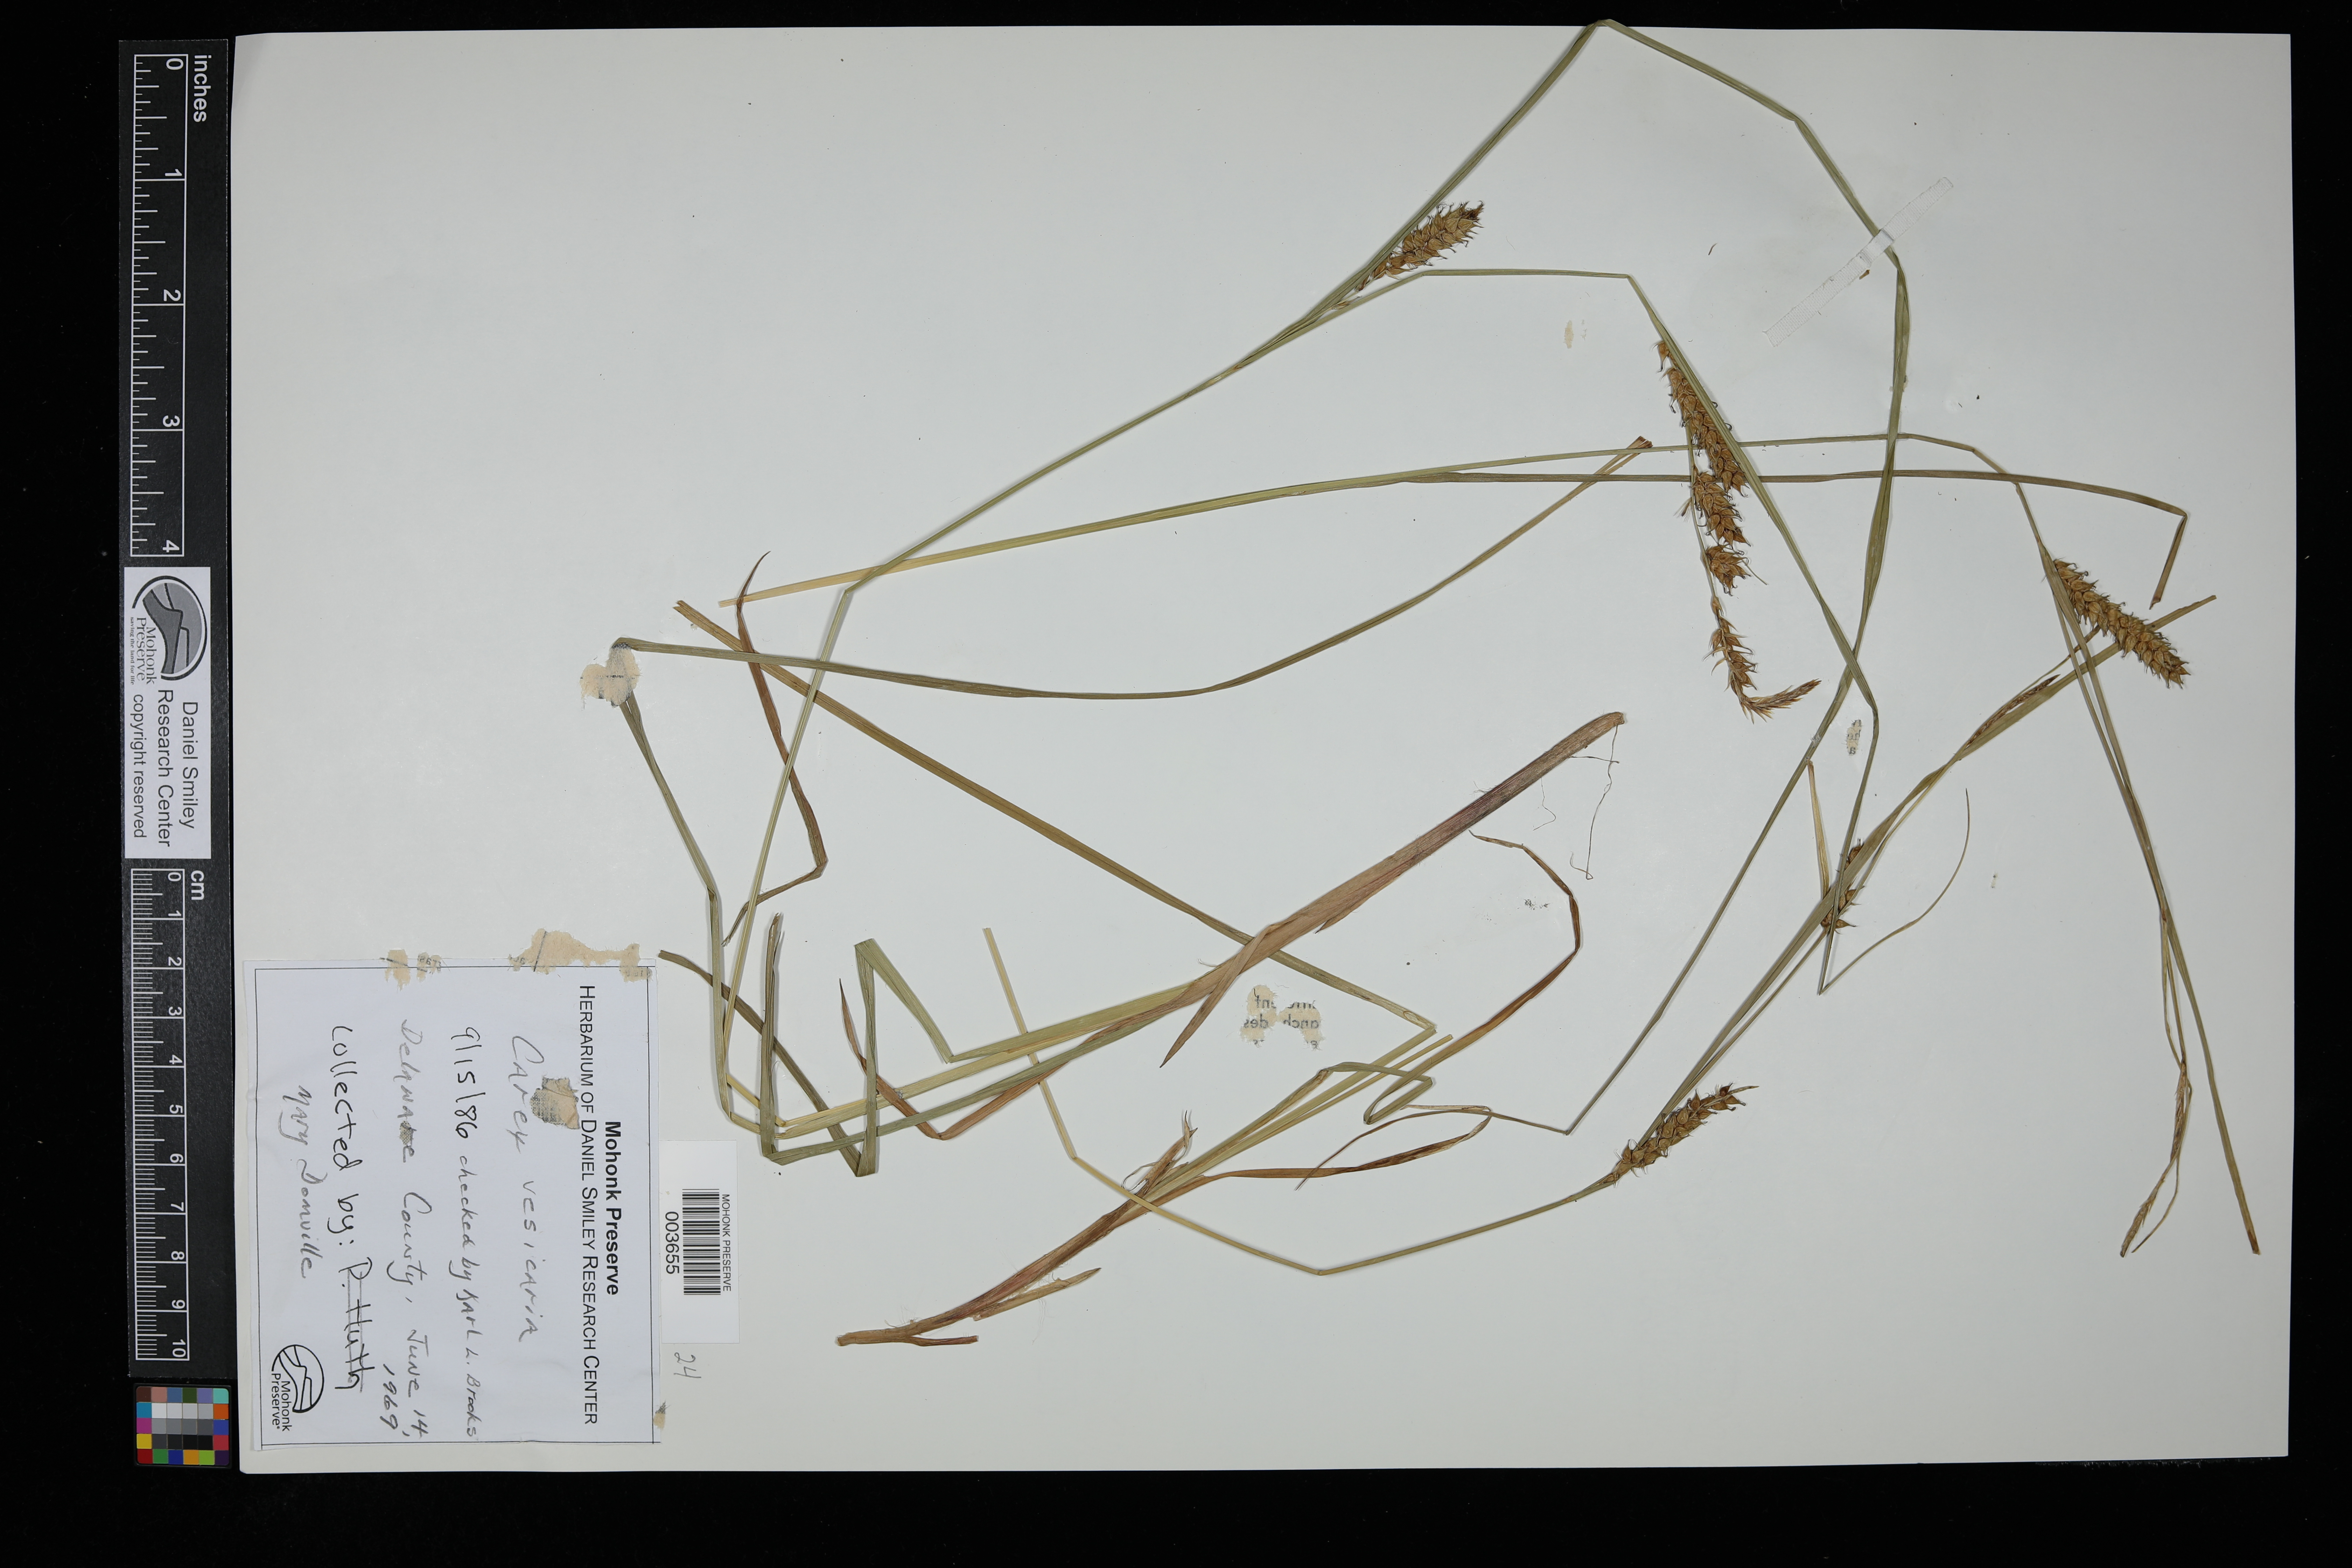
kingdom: Plantae
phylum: Tracheophyta
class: Liliopsida
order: Poales
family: Cyperaceae
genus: Carex
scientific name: Carex vesicaria
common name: Bladder-sedge
